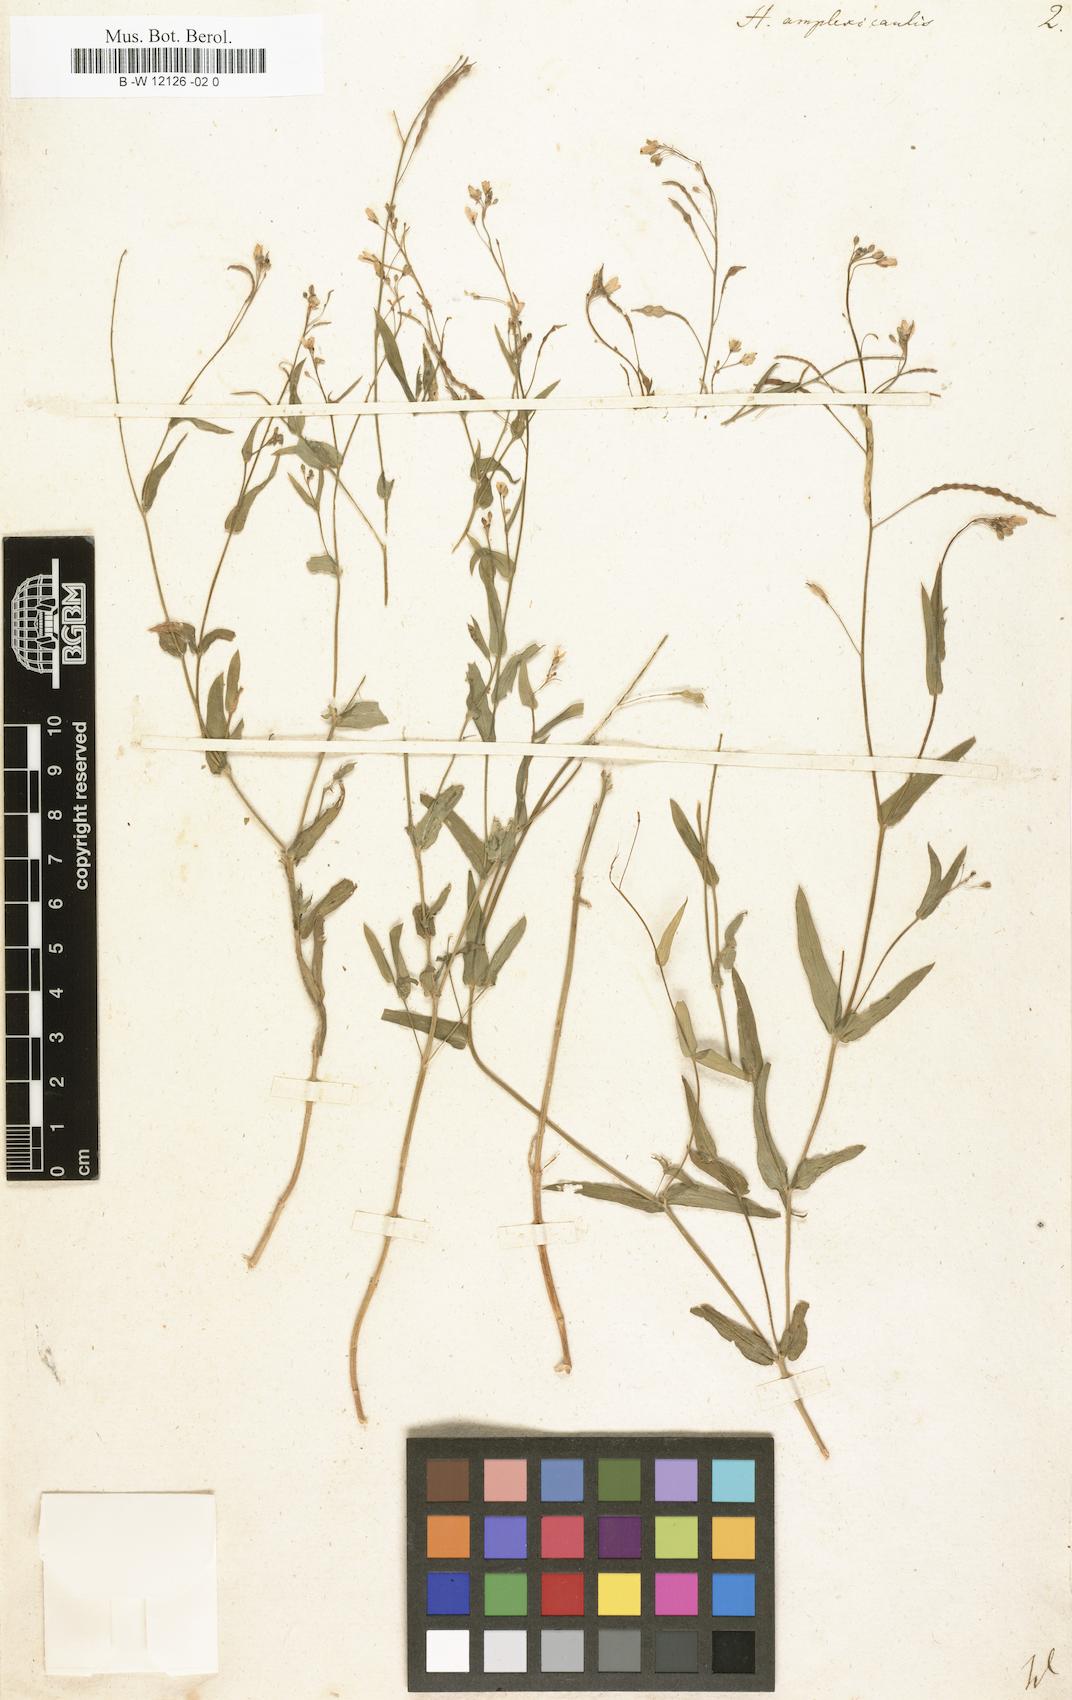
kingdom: Plantae
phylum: Tracheophyta
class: Magnoliopsida
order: Brassicales
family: Brassicaceae
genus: Heliophila
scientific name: Heliophila amplexicaulis
